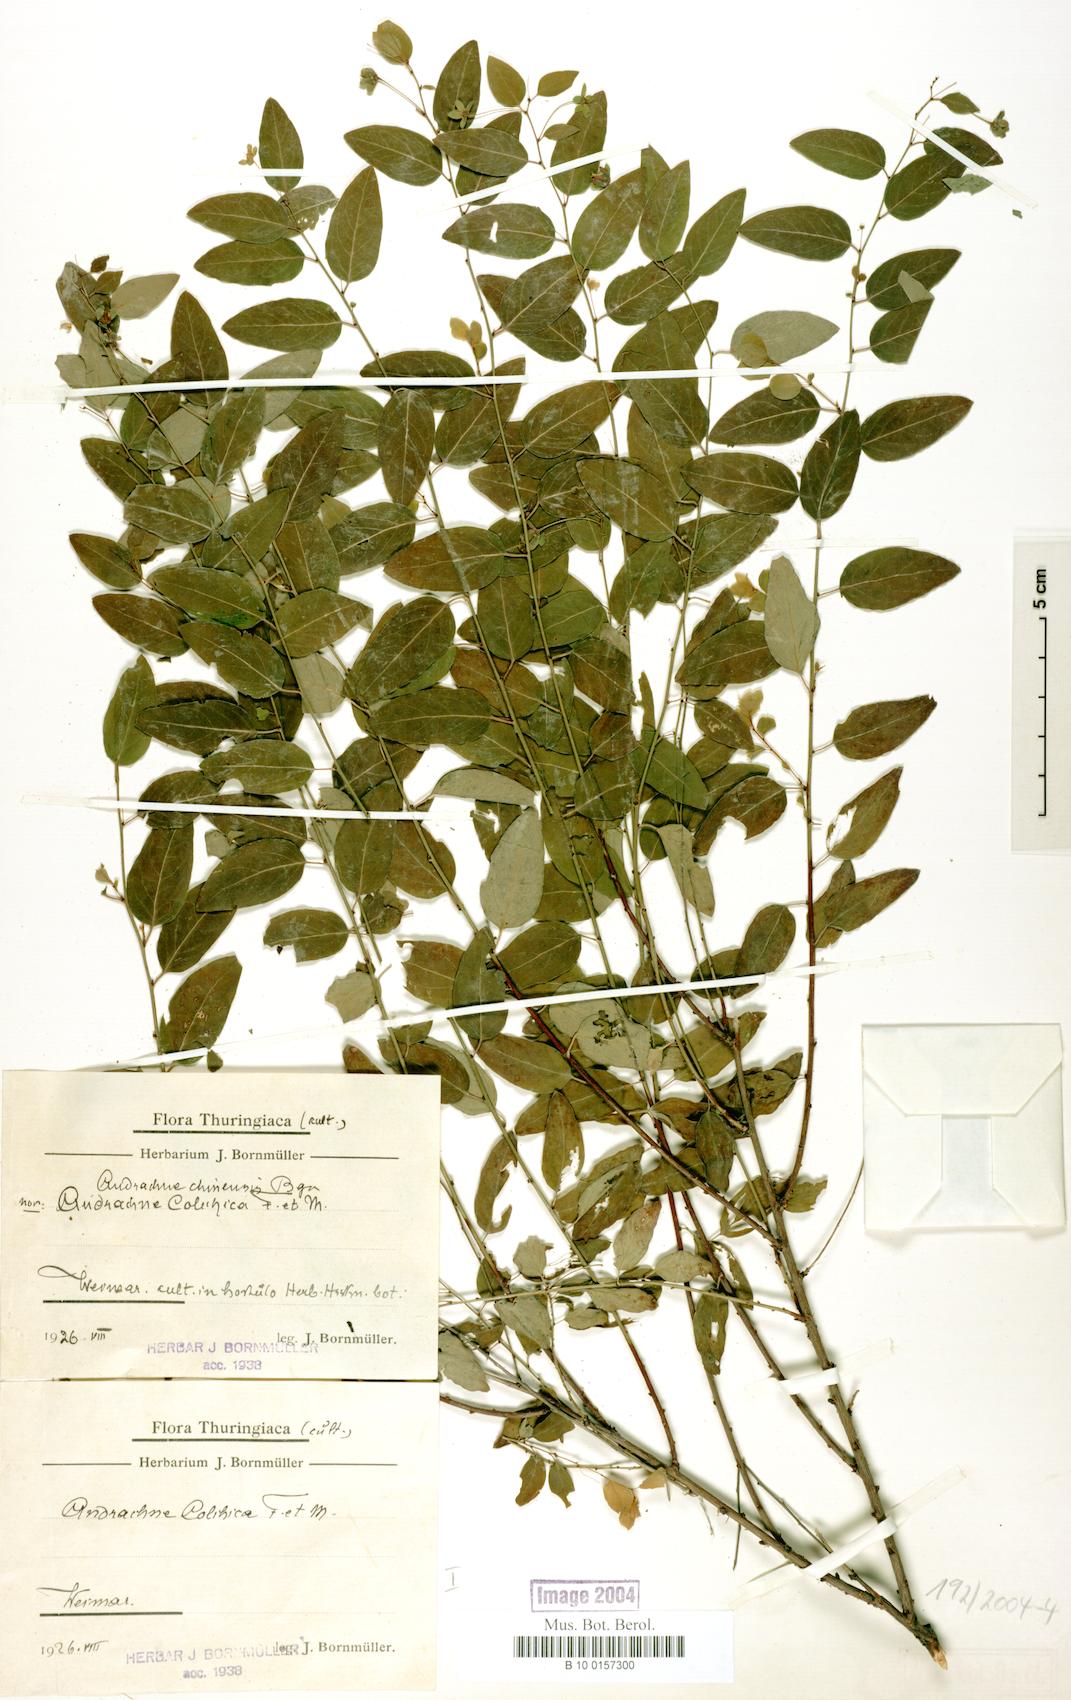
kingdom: Plantae
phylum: Tracheophyta
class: Magnoliopsida
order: Malpighiales
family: Phyllanthaceae
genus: Leptopus
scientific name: Leptopus chinensis
